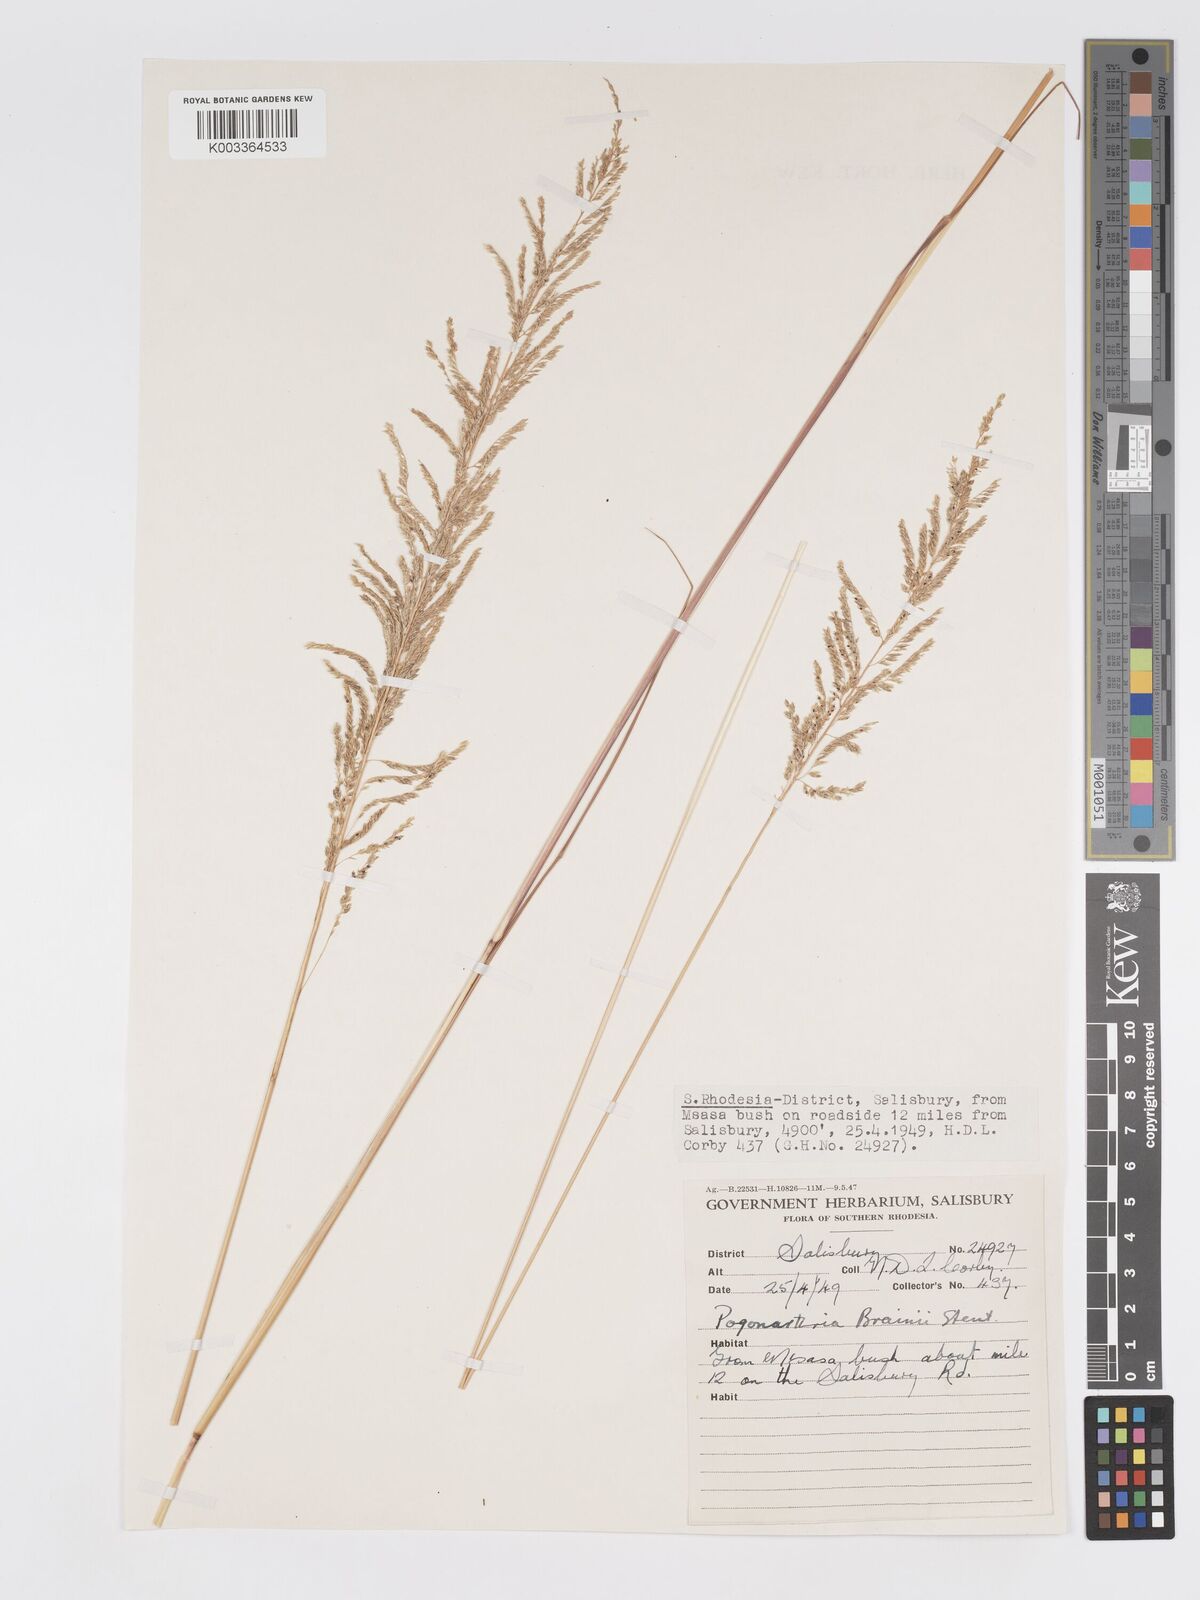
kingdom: Plantae
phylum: Tracheophyta
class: Liliopsida
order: Poales
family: Poaceae
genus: Eragrostis
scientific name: Eragrostis brainii
